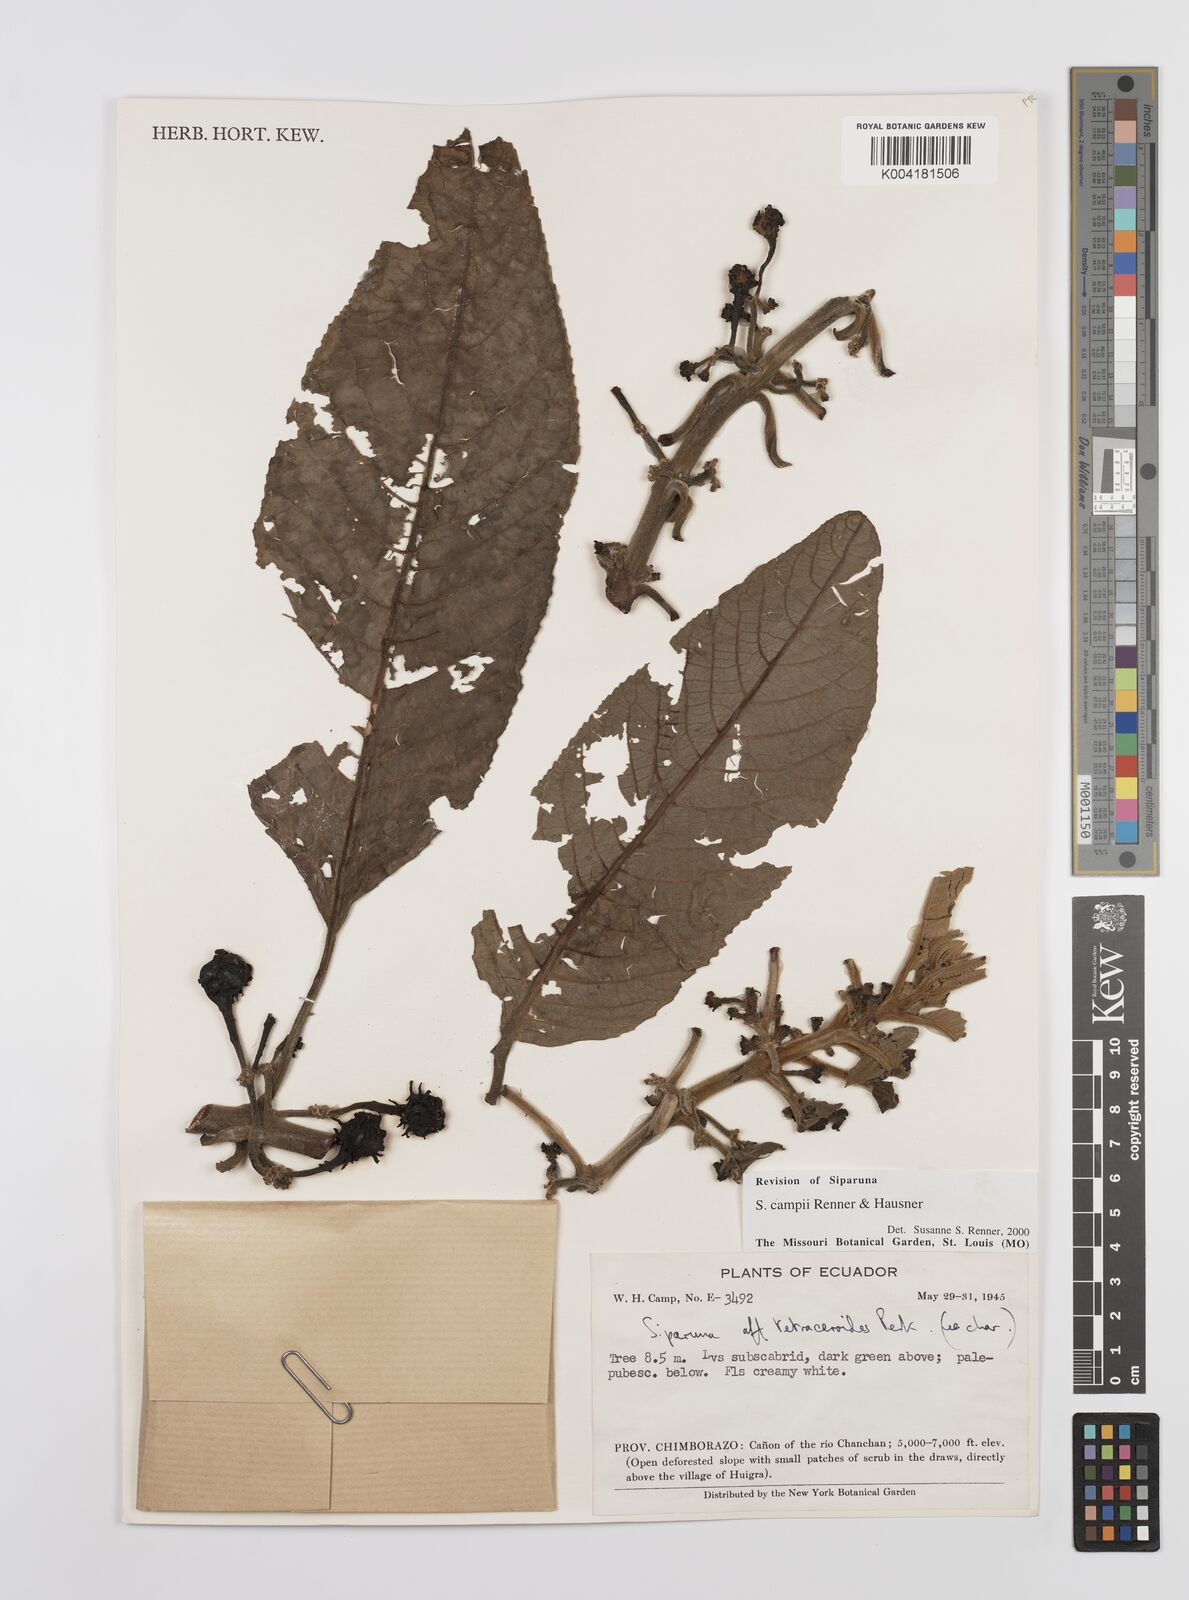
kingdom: Plantae
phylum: Tracheophyta
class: Magnoliopsida
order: Laurales
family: Siparunaceae
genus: Siparuna
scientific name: Siparuna campii
